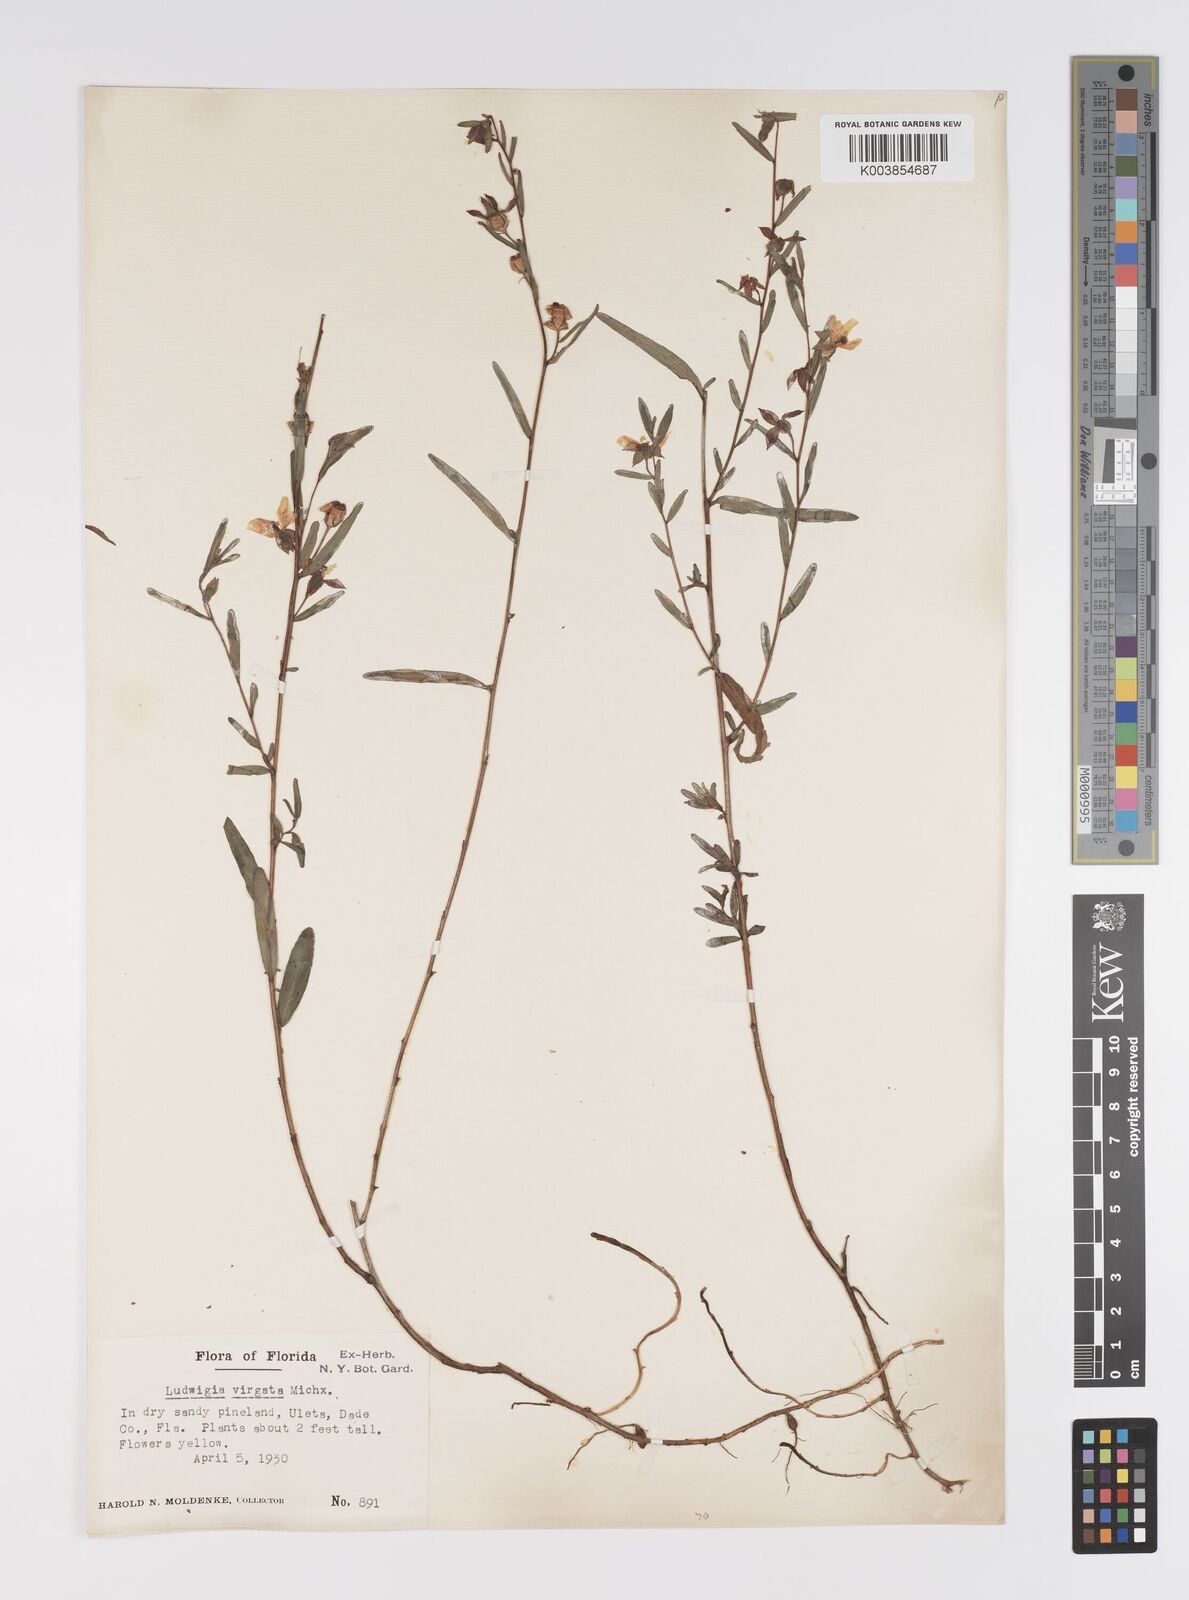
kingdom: Plantae
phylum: Tracheophyta
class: Magnoliopsida
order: Myrtales
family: Onagraceae
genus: Ludwigia
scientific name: Ludwigia virgata
